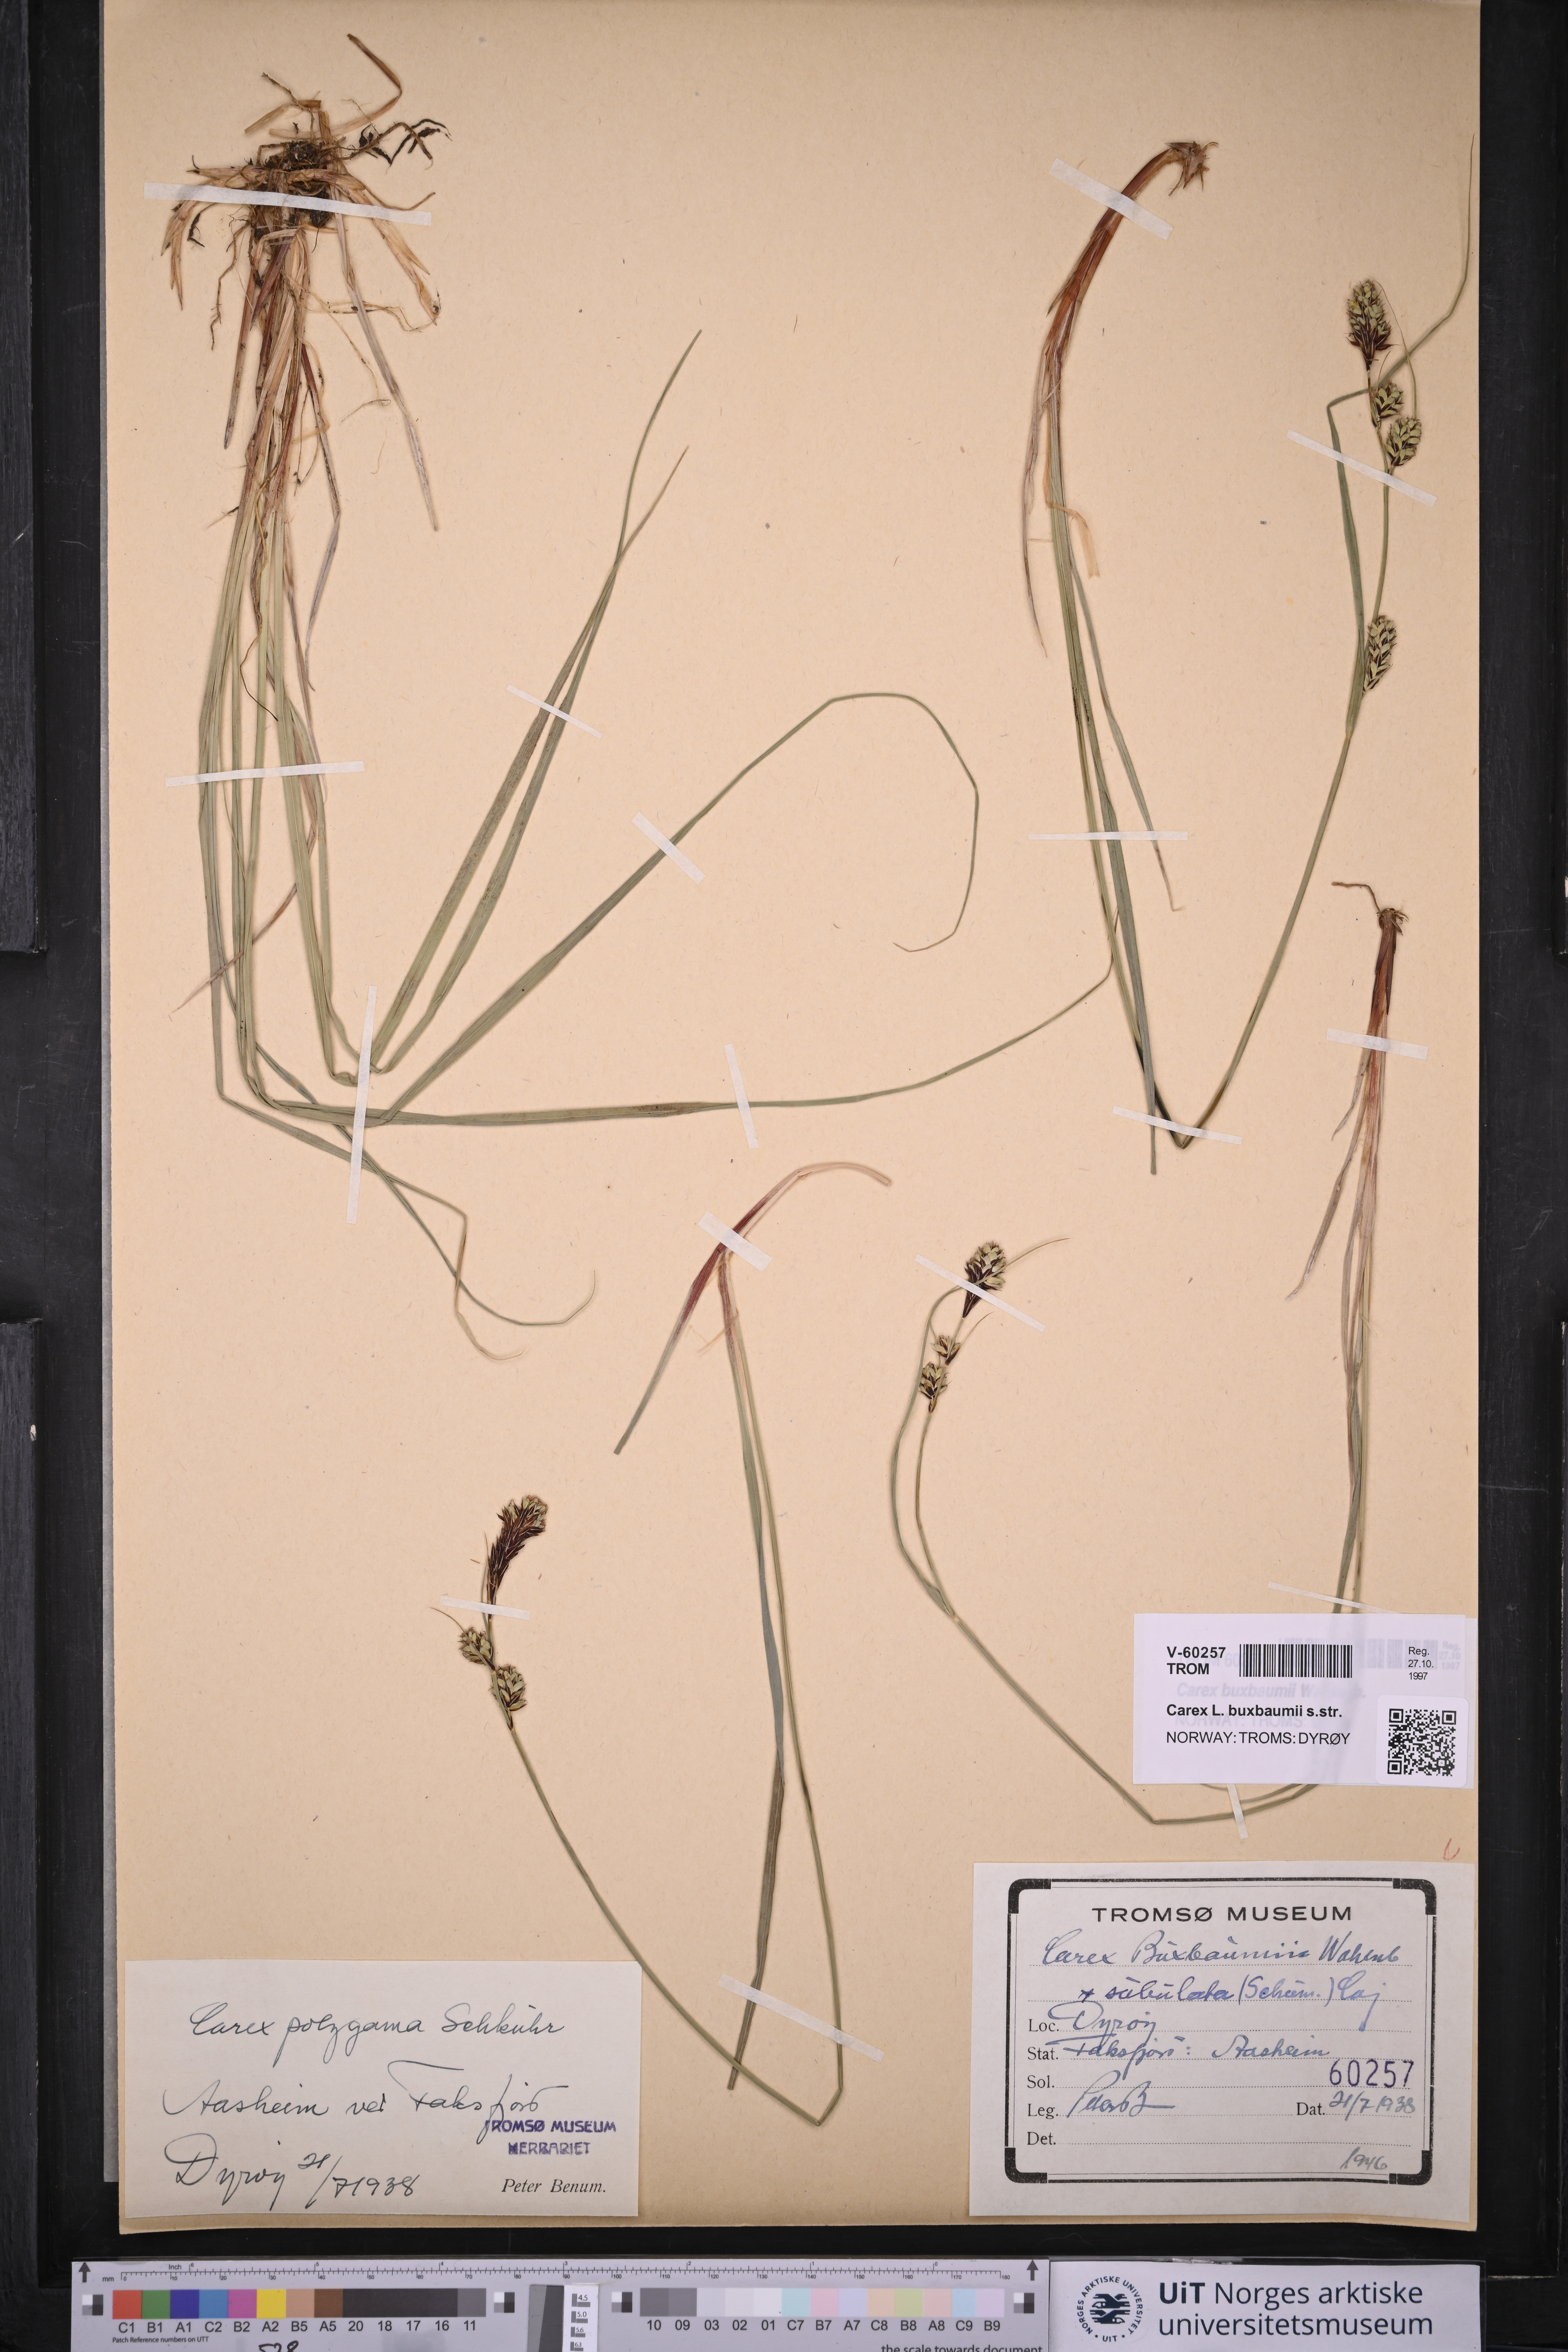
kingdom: Plantae
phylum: Tracheophyta
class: Liliopsida
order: Poales
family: Cyperaceae
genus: Carex
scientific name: Carex buxbaumii
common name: Club sedge
